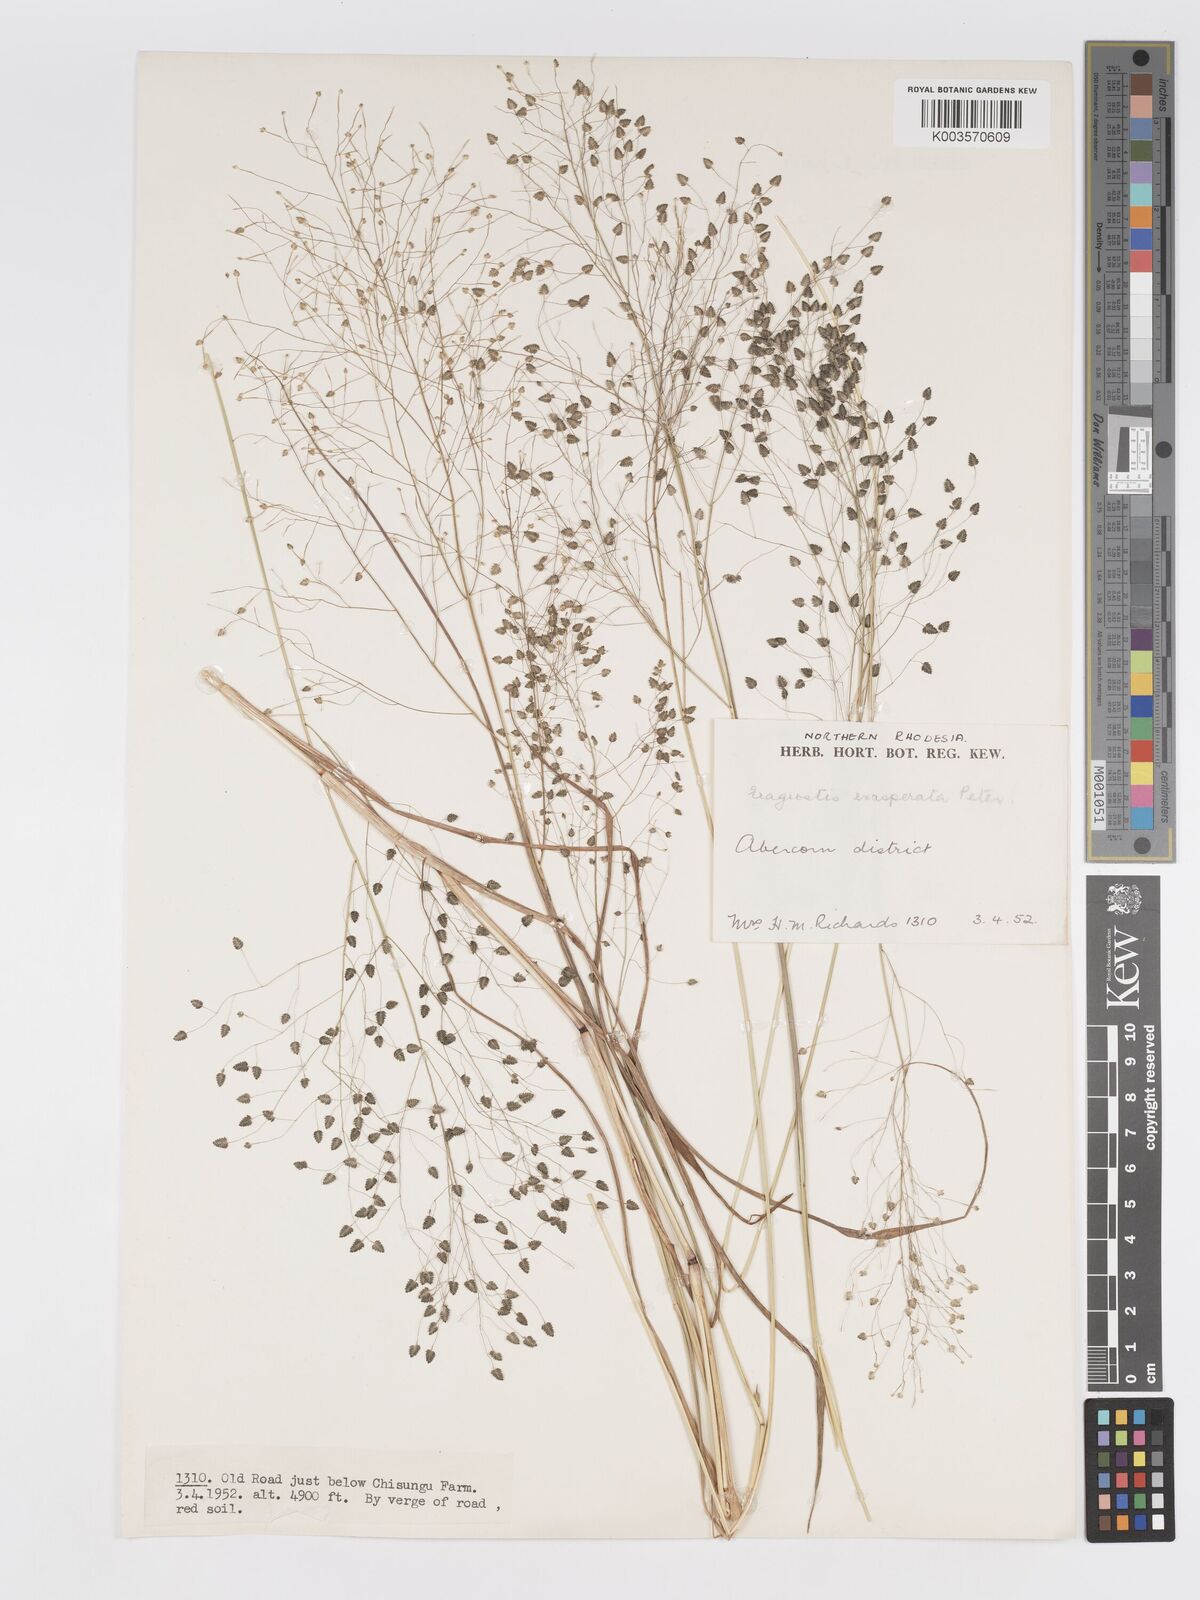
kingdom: Plantae
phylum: Tracheophyta
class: Liliopsida
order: Poales
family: Poaceae
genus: Eragrostis
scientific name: Eragrostis exasperata
